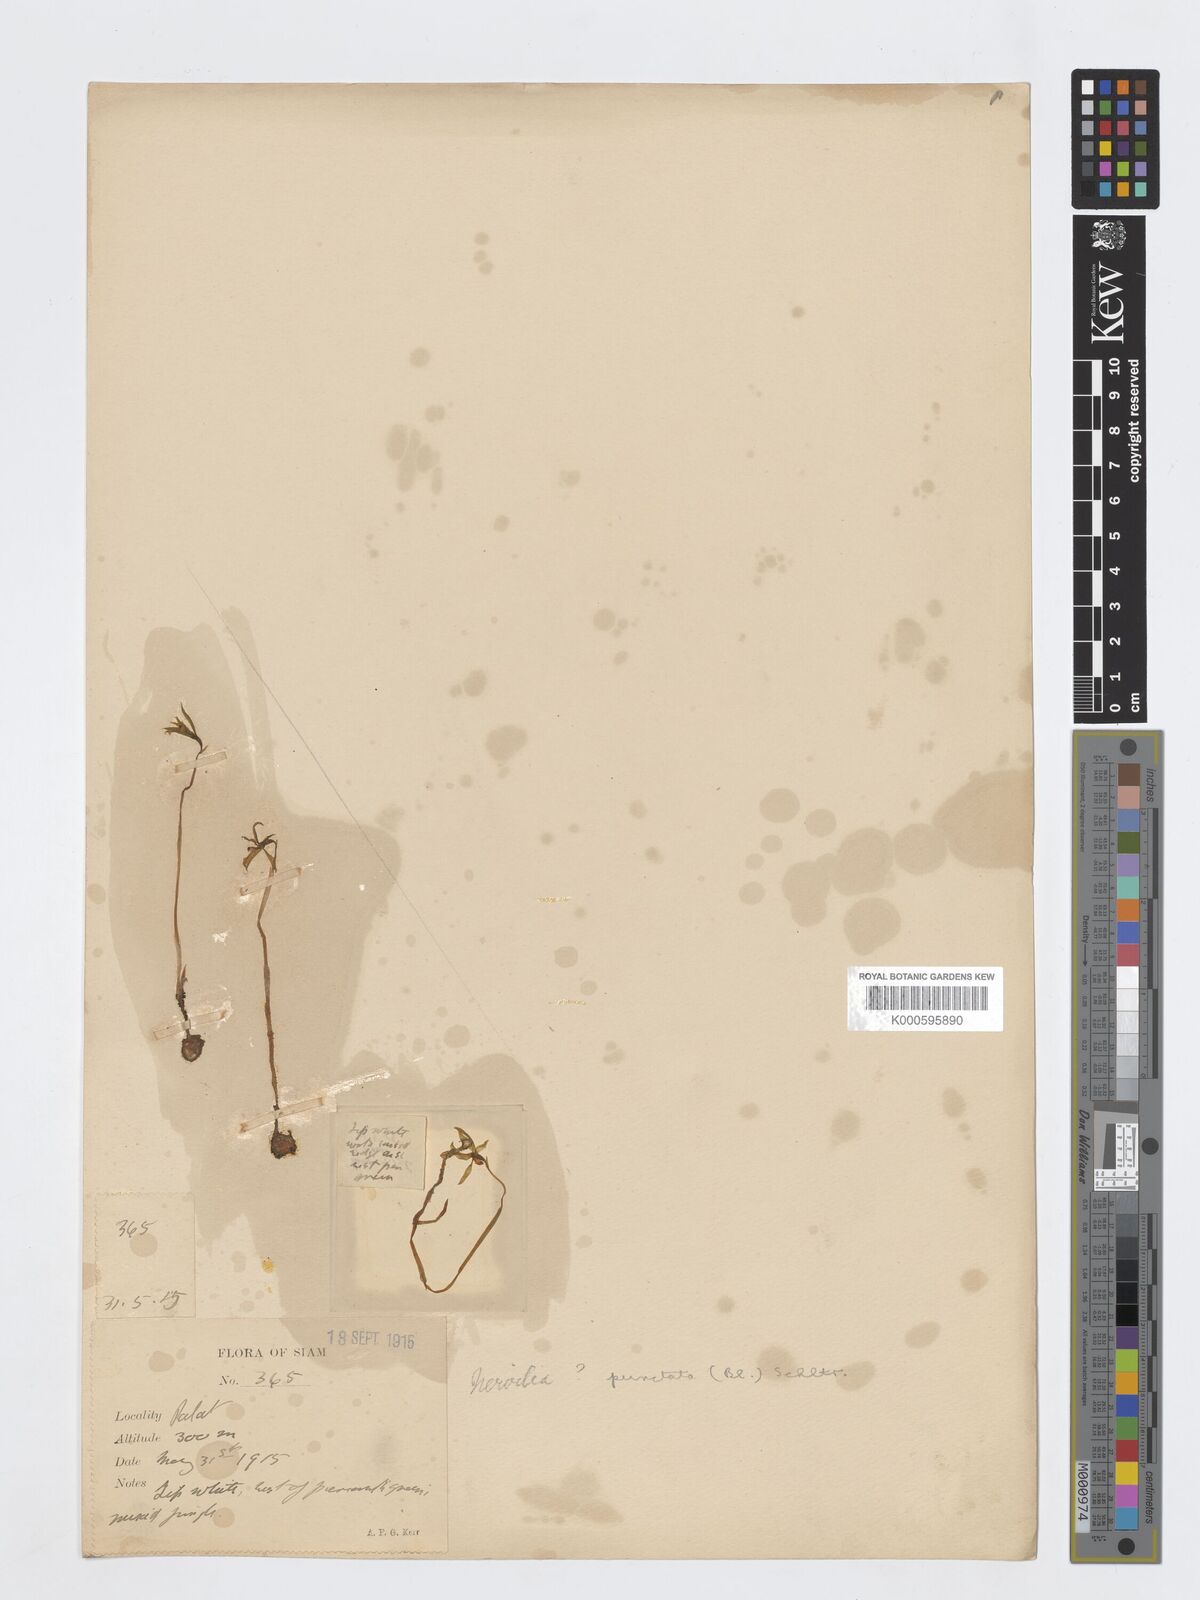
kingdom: Plantae
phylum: Tracheophyta
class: Liliopsida
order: Asparagales
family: Orchidaceae
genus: Nervilia
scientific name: Nervilia
